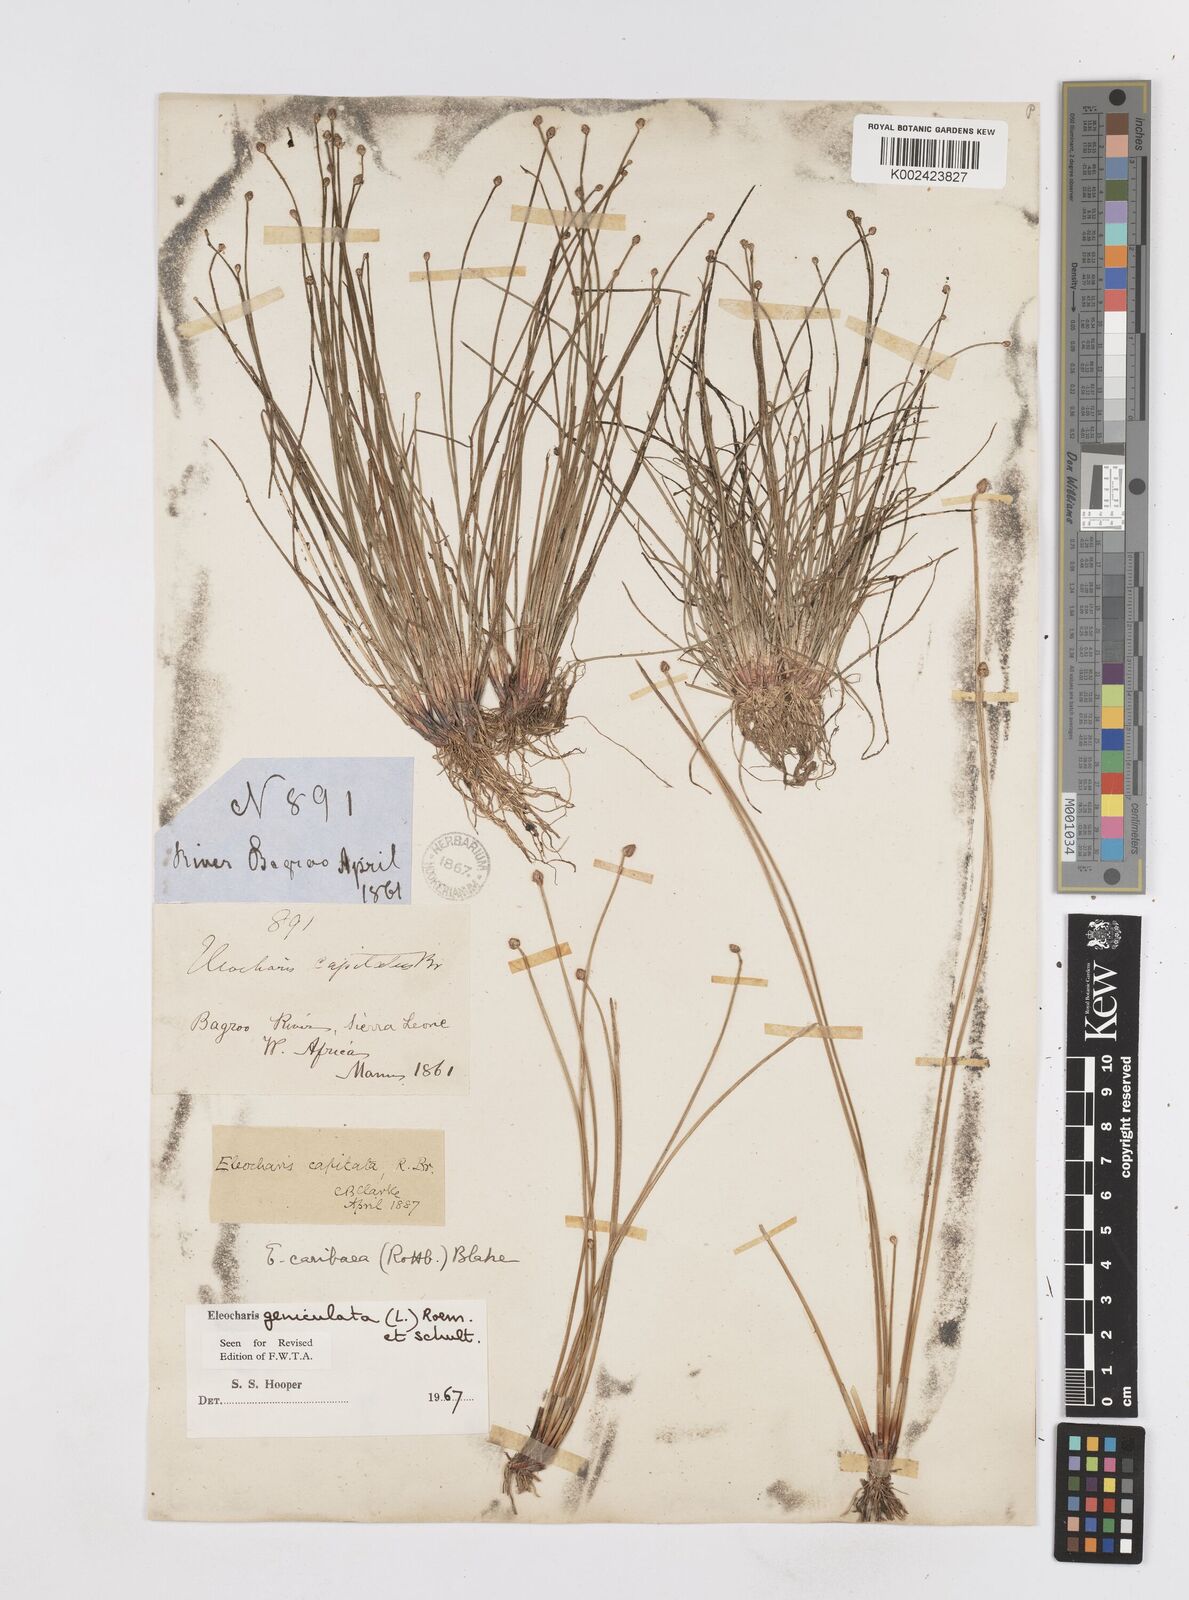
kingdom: Plantae
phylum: Tracheophyta
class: Liliopsida
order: Poales
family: Cyperaceae
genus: Eleocharis
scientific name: Eleocharis geniculata
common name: Canada spikesedge
